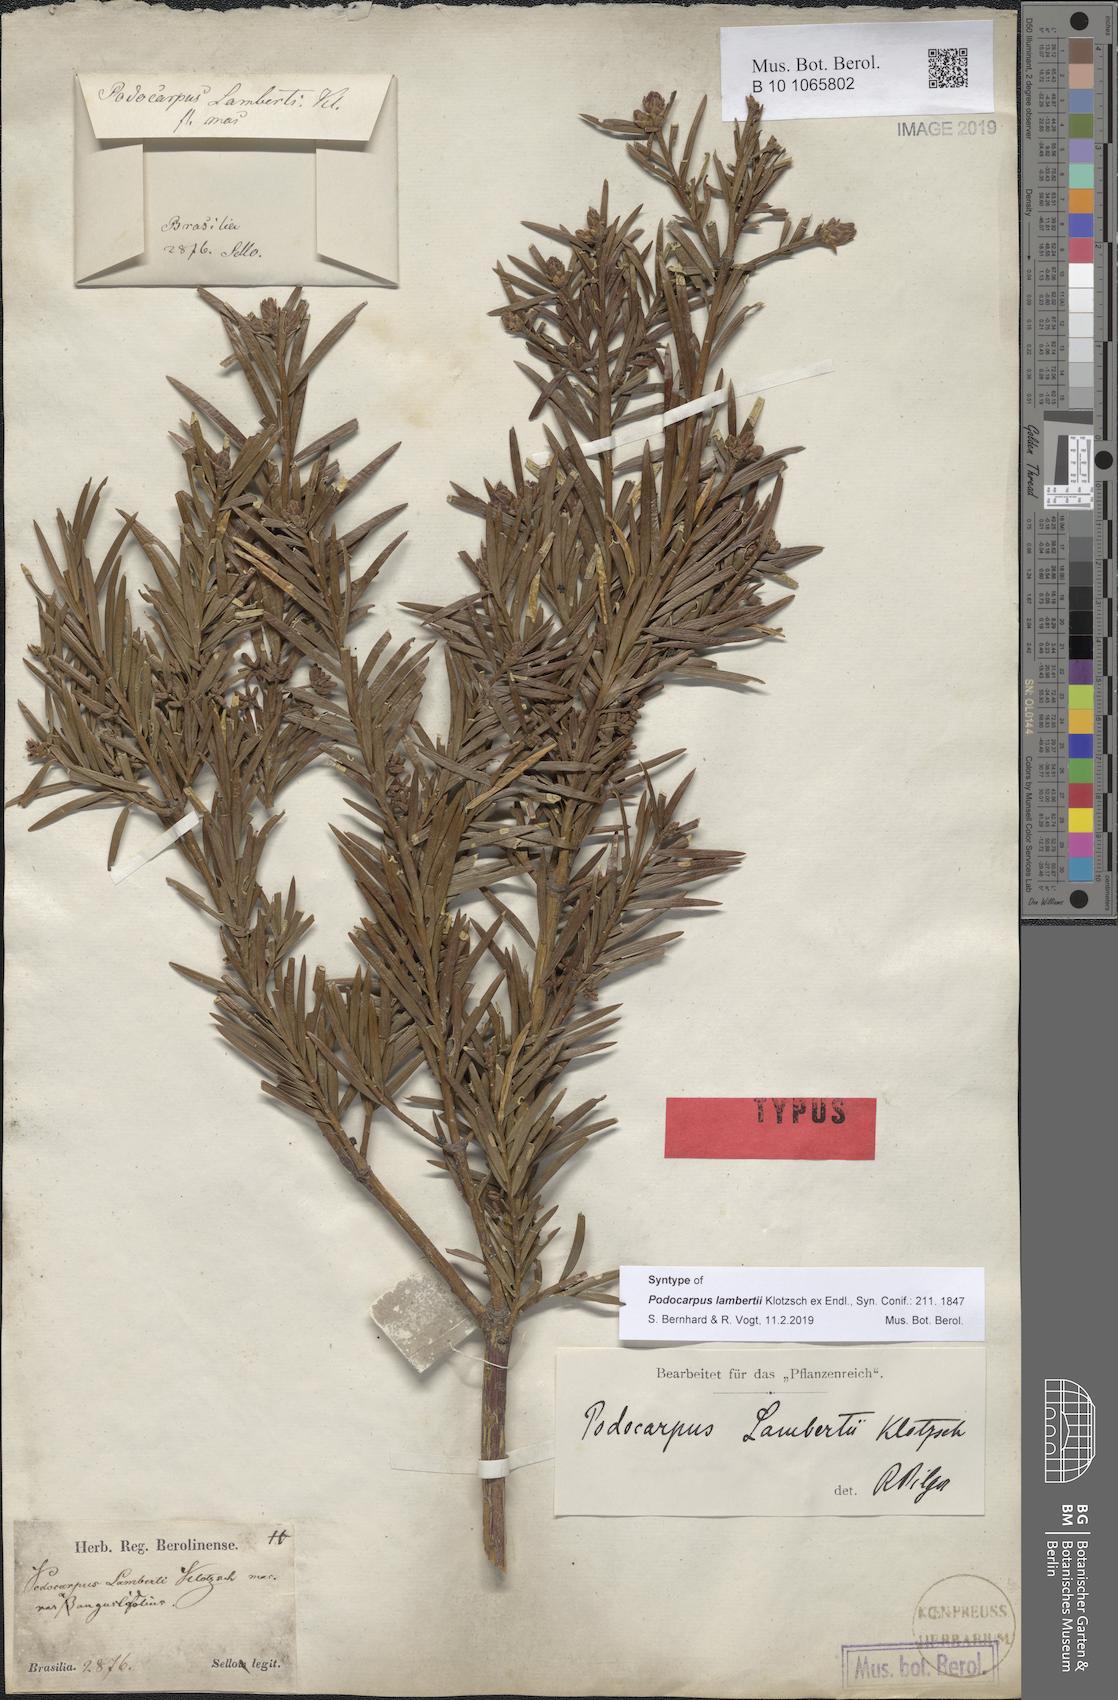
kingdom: Plantae
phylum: Tracheophyta
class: Pinopsida
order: Pinales
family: Podocarpaceae
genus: Podocarpus
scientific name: Podocarpus lambertii
